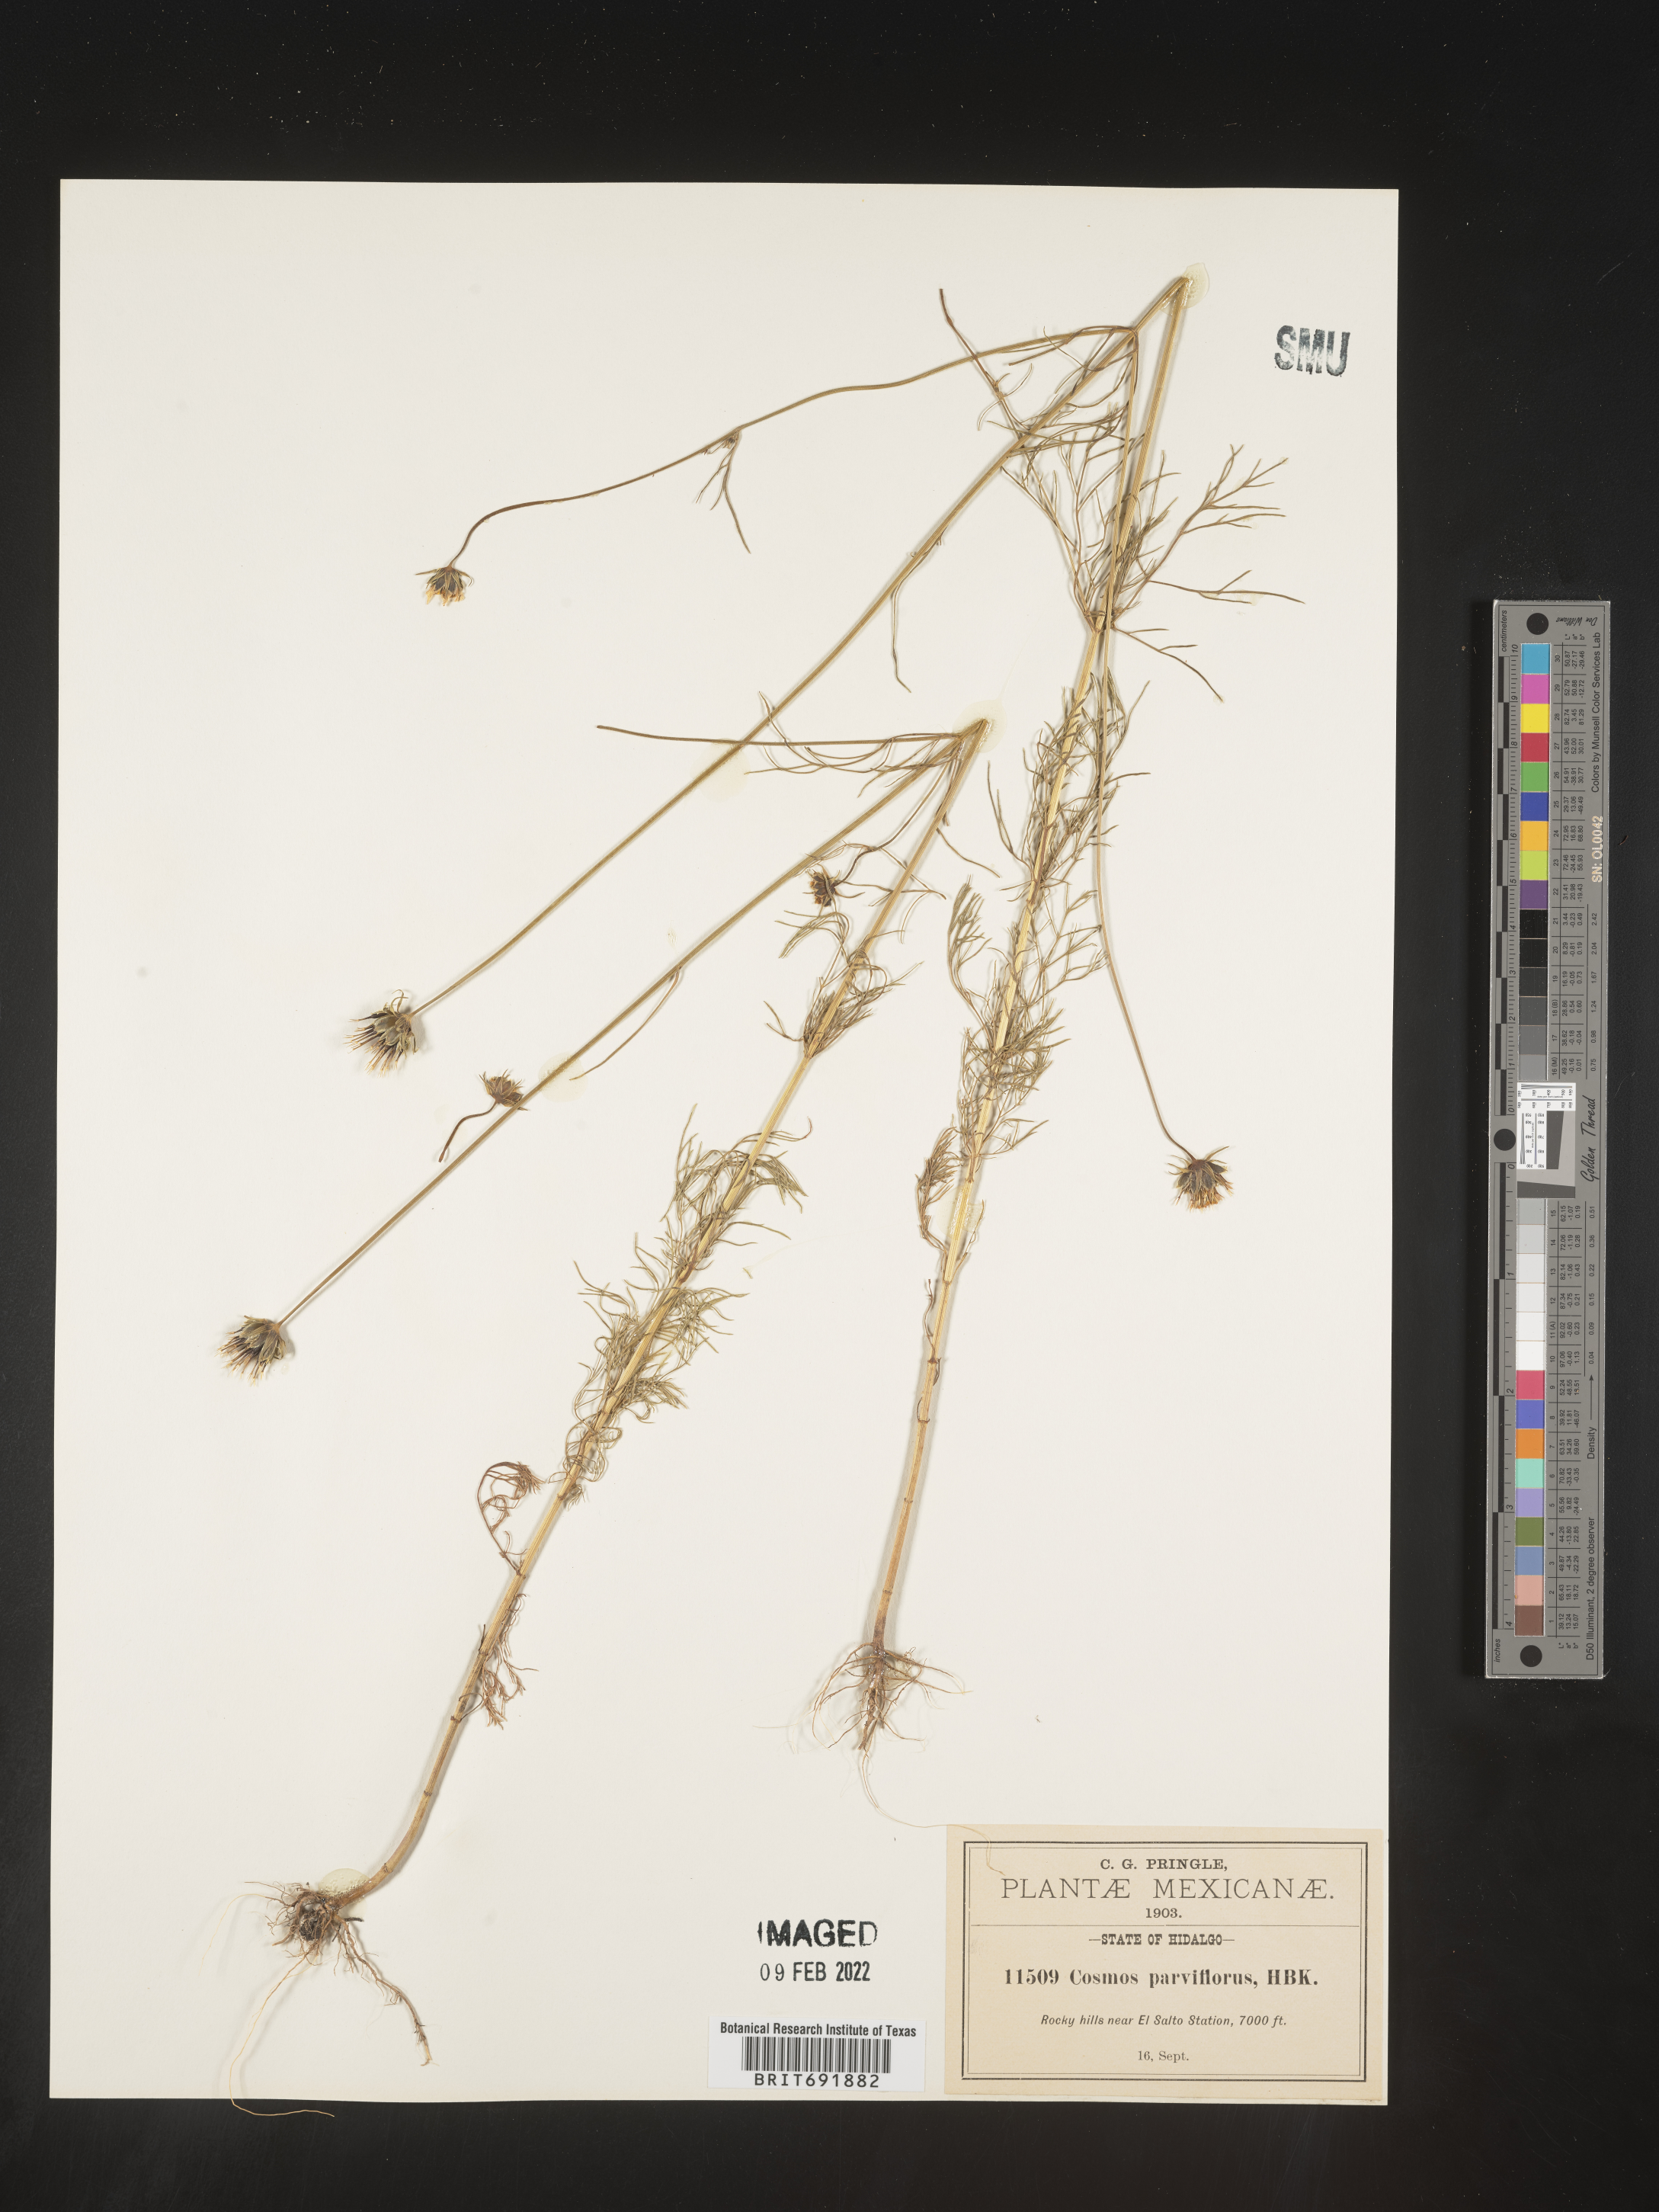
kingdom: Plantae
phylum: Tracheophyta
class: Magnoliopsida
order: Asterales
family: Asteraceae
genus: Cosmos
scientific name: Cosmos
